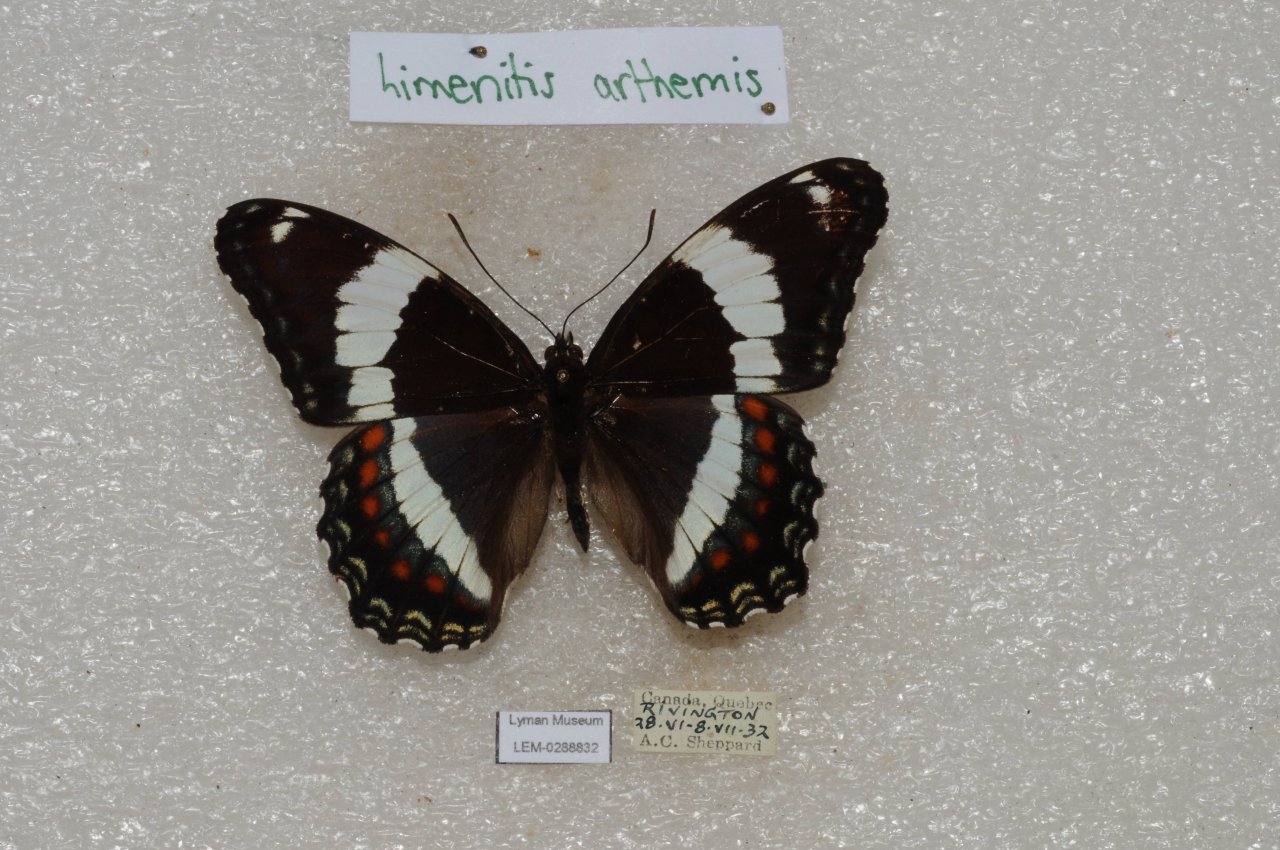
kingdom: Animalia
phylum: Arthropoda
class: Insecta
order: Lepidoptera
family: Nymphalidae
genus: Limenitis
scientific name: Limenitis arthemis
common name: Red-spotted Admiral
